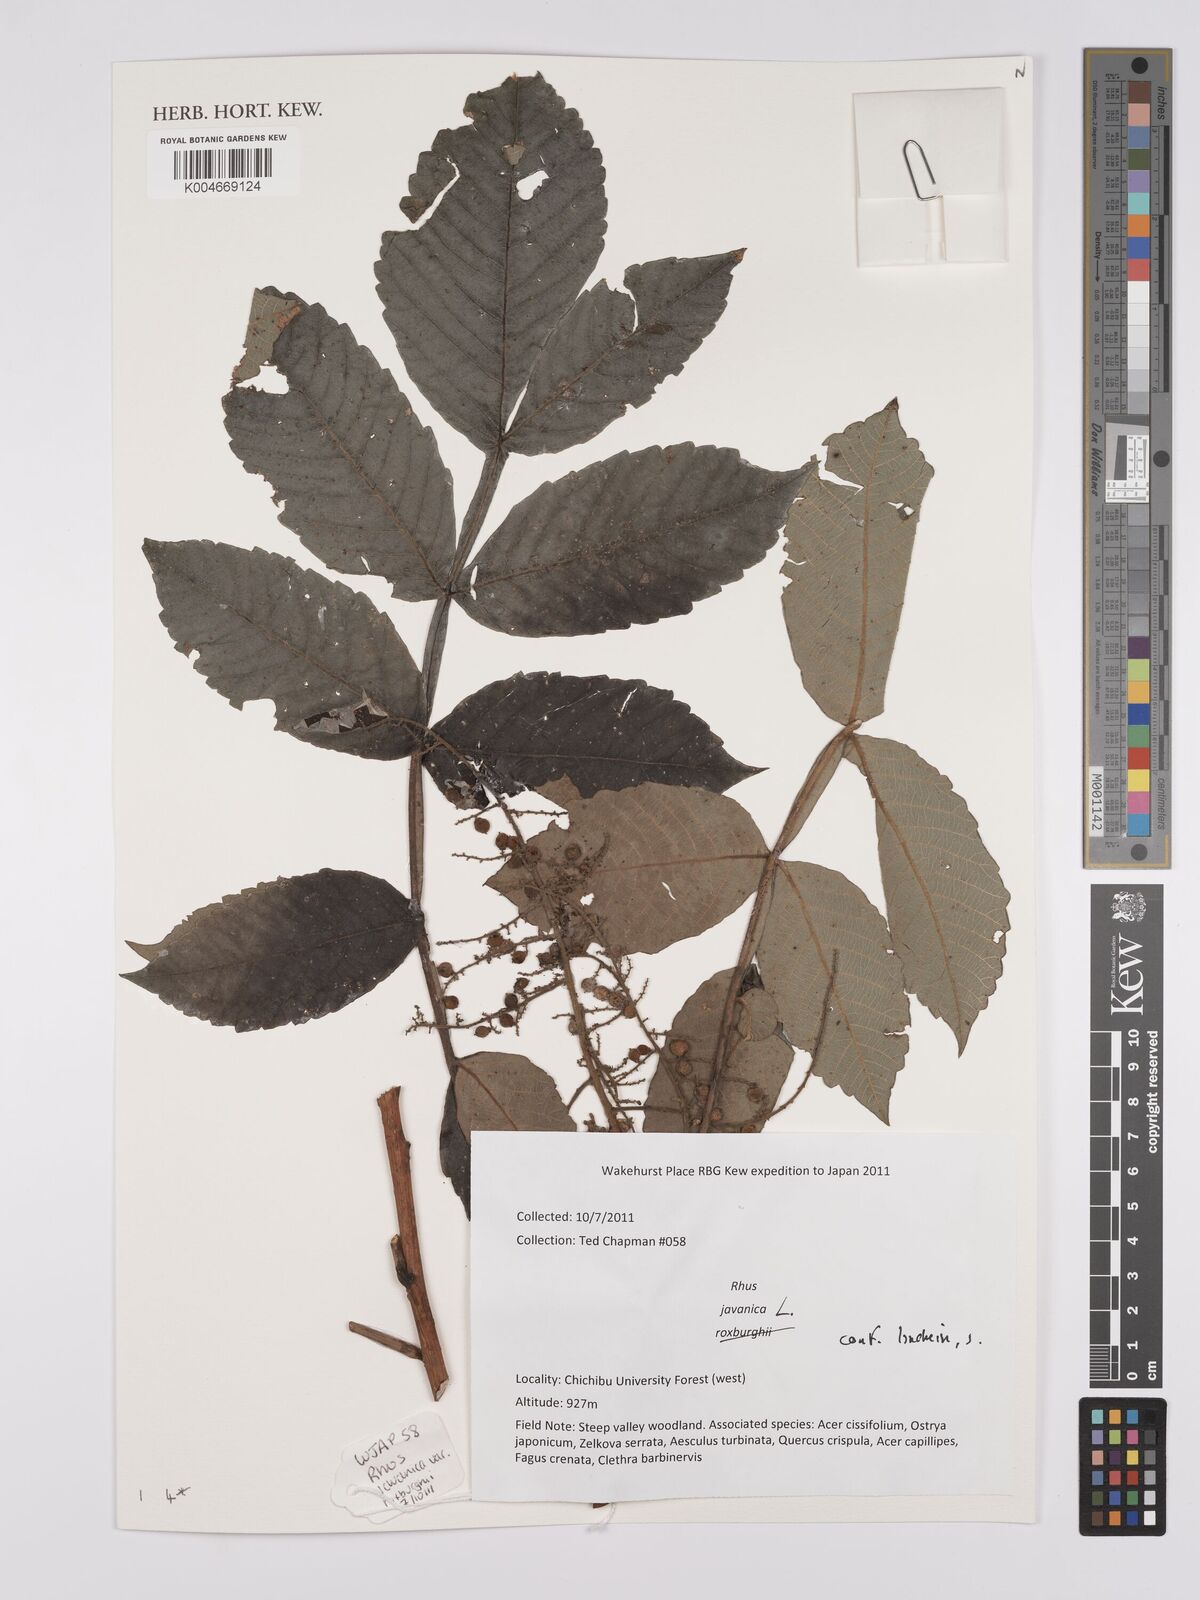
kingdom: Plantae
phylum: Tracheophyta
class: Magnoliopsida
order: Sapindales
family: Simaroubaceae
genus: Brucea
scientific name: Brucea javanica
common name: Macassar kernels
